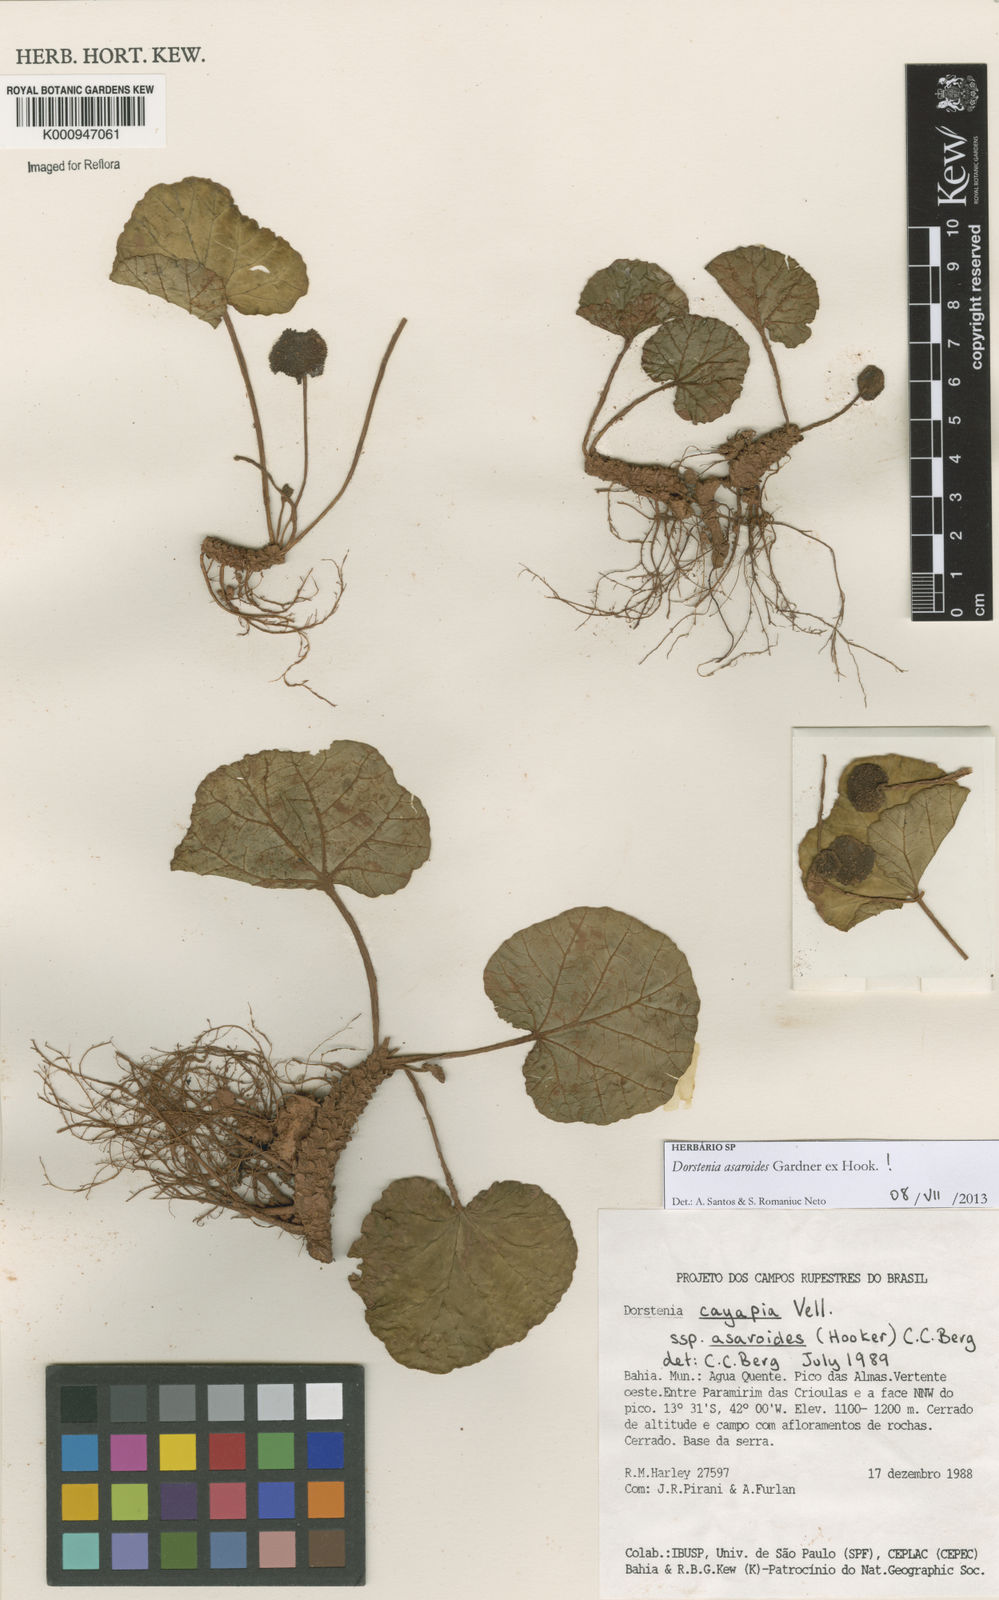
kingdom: Plantae
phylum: Tracheophyta
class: Magnoliopsida
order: Rosales
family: Moraceae
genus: Dorstenia
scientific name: Dorstenia
